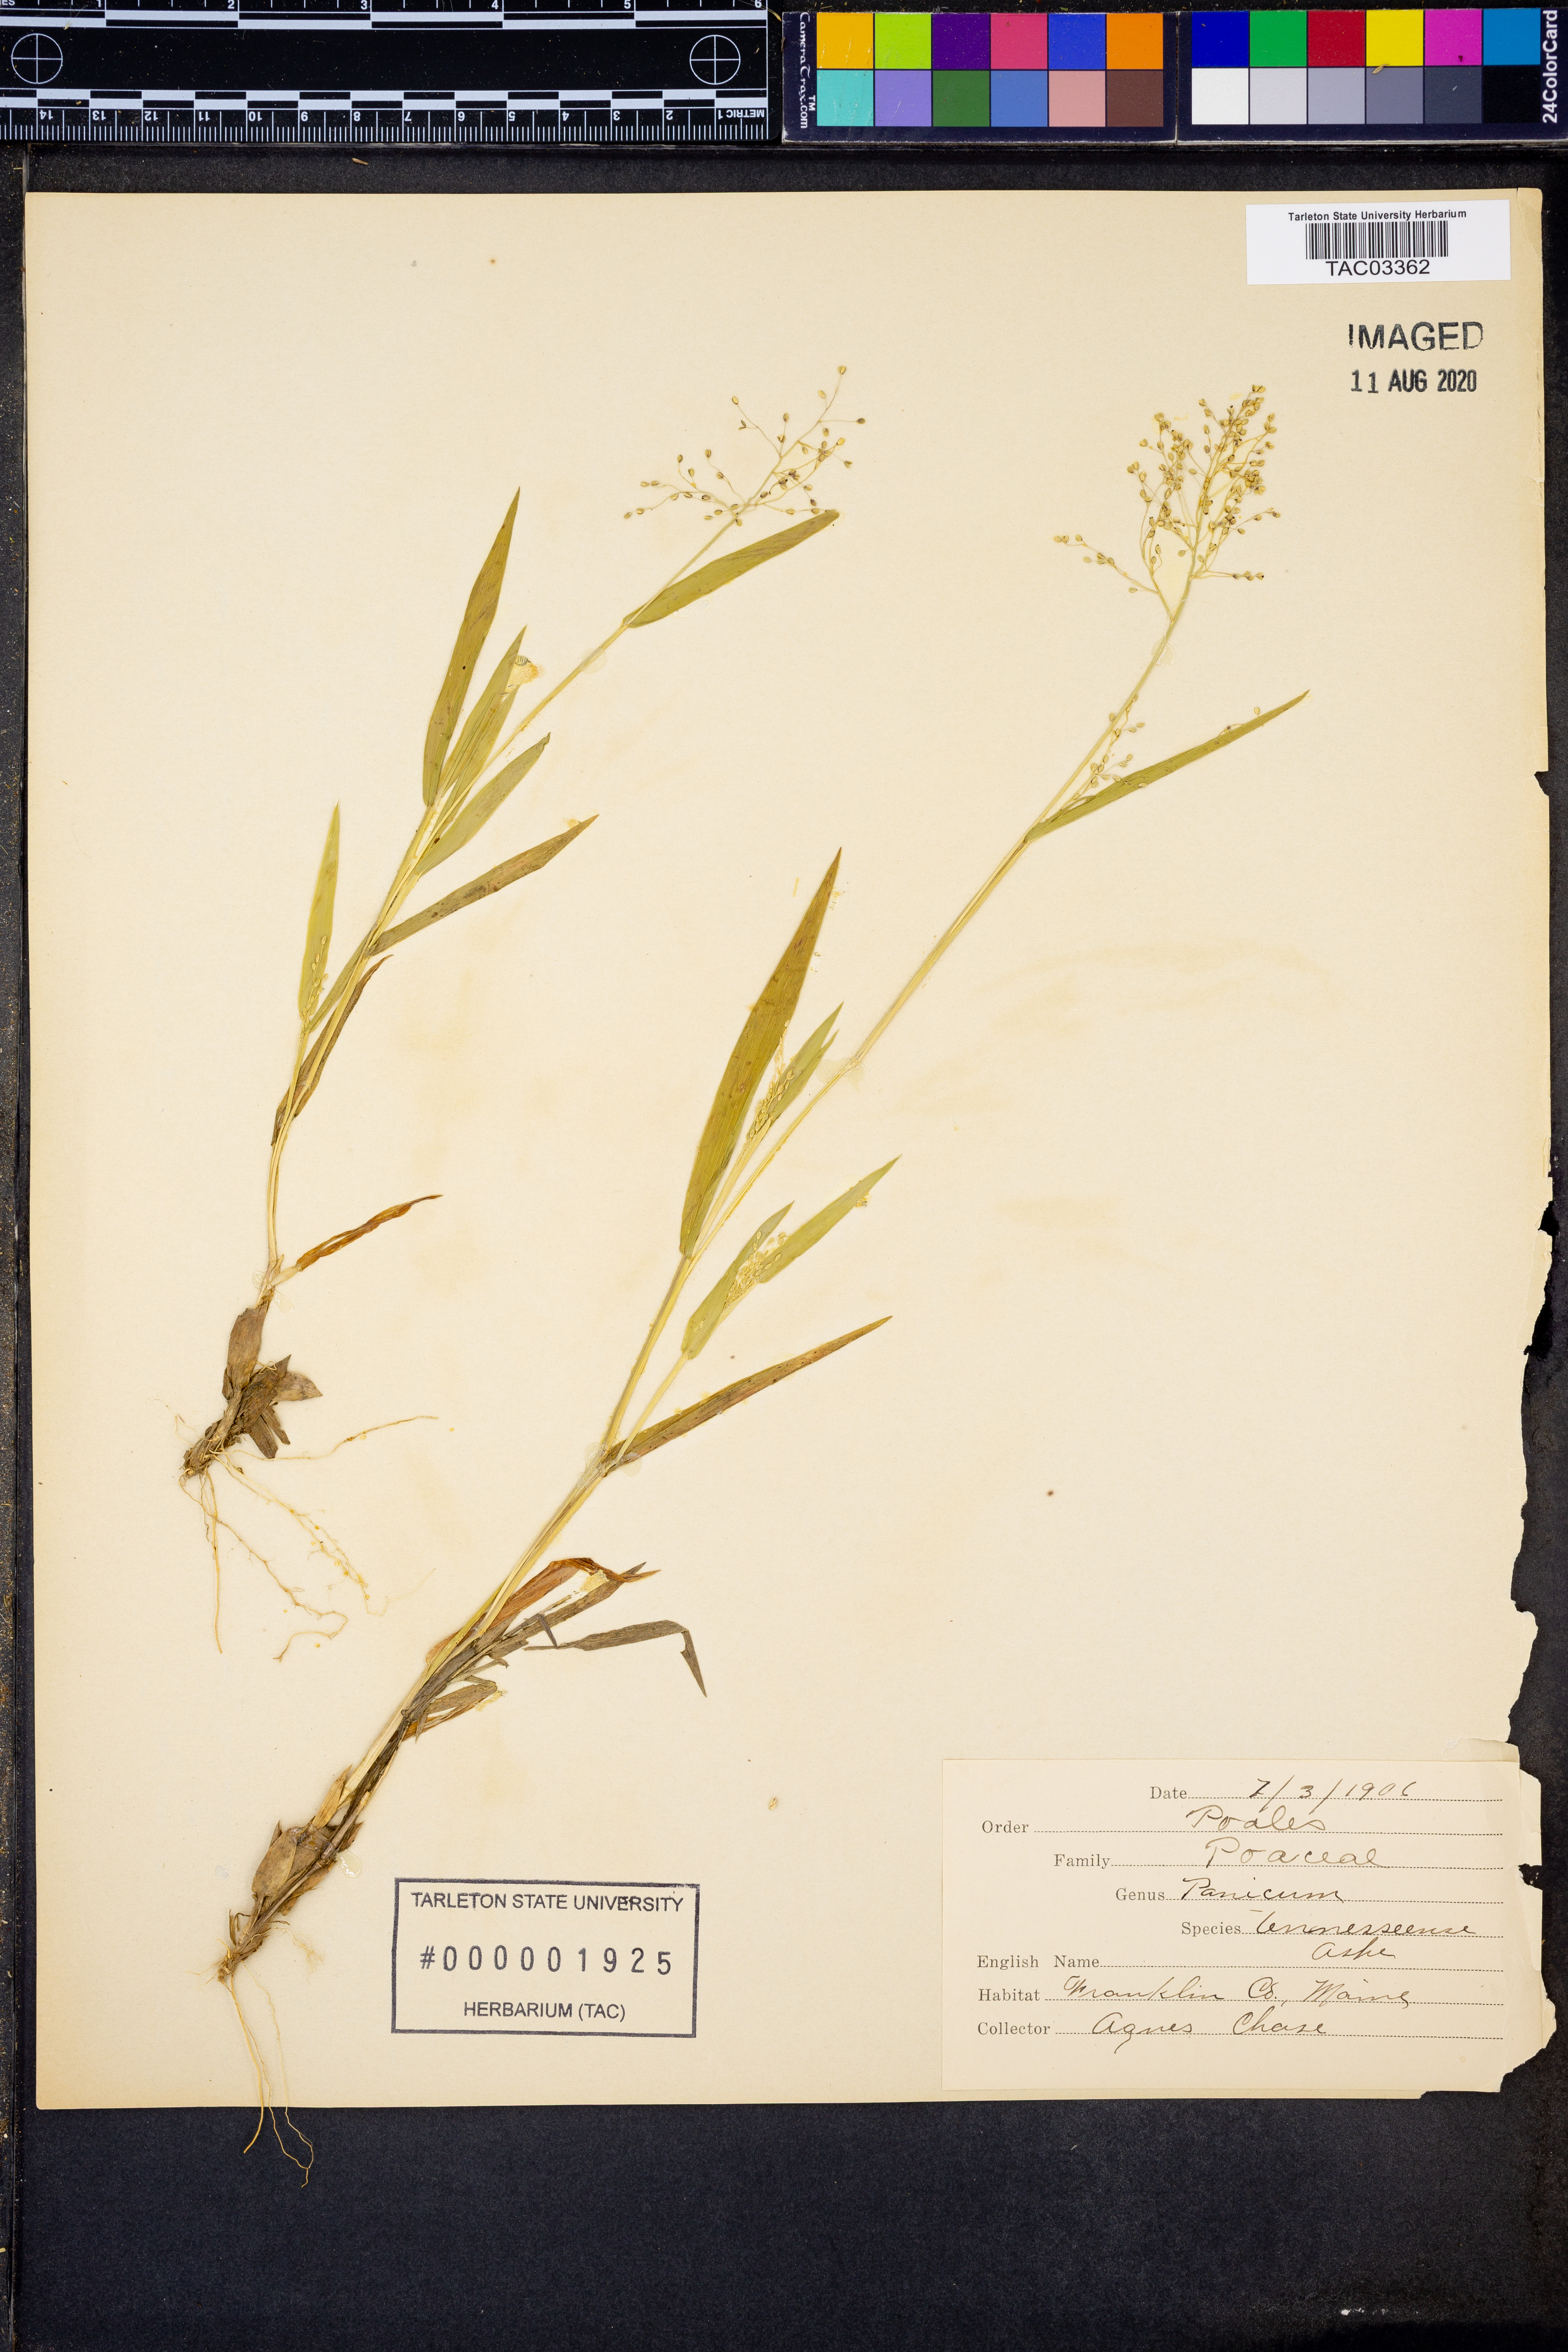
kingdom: Plantae
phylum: Tracheophyta
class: Liliopsida
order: Poales
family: Poaceae
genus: Dichanthelium
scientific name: Dichanthelium lanuginosum
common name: Woolly panicgrass
